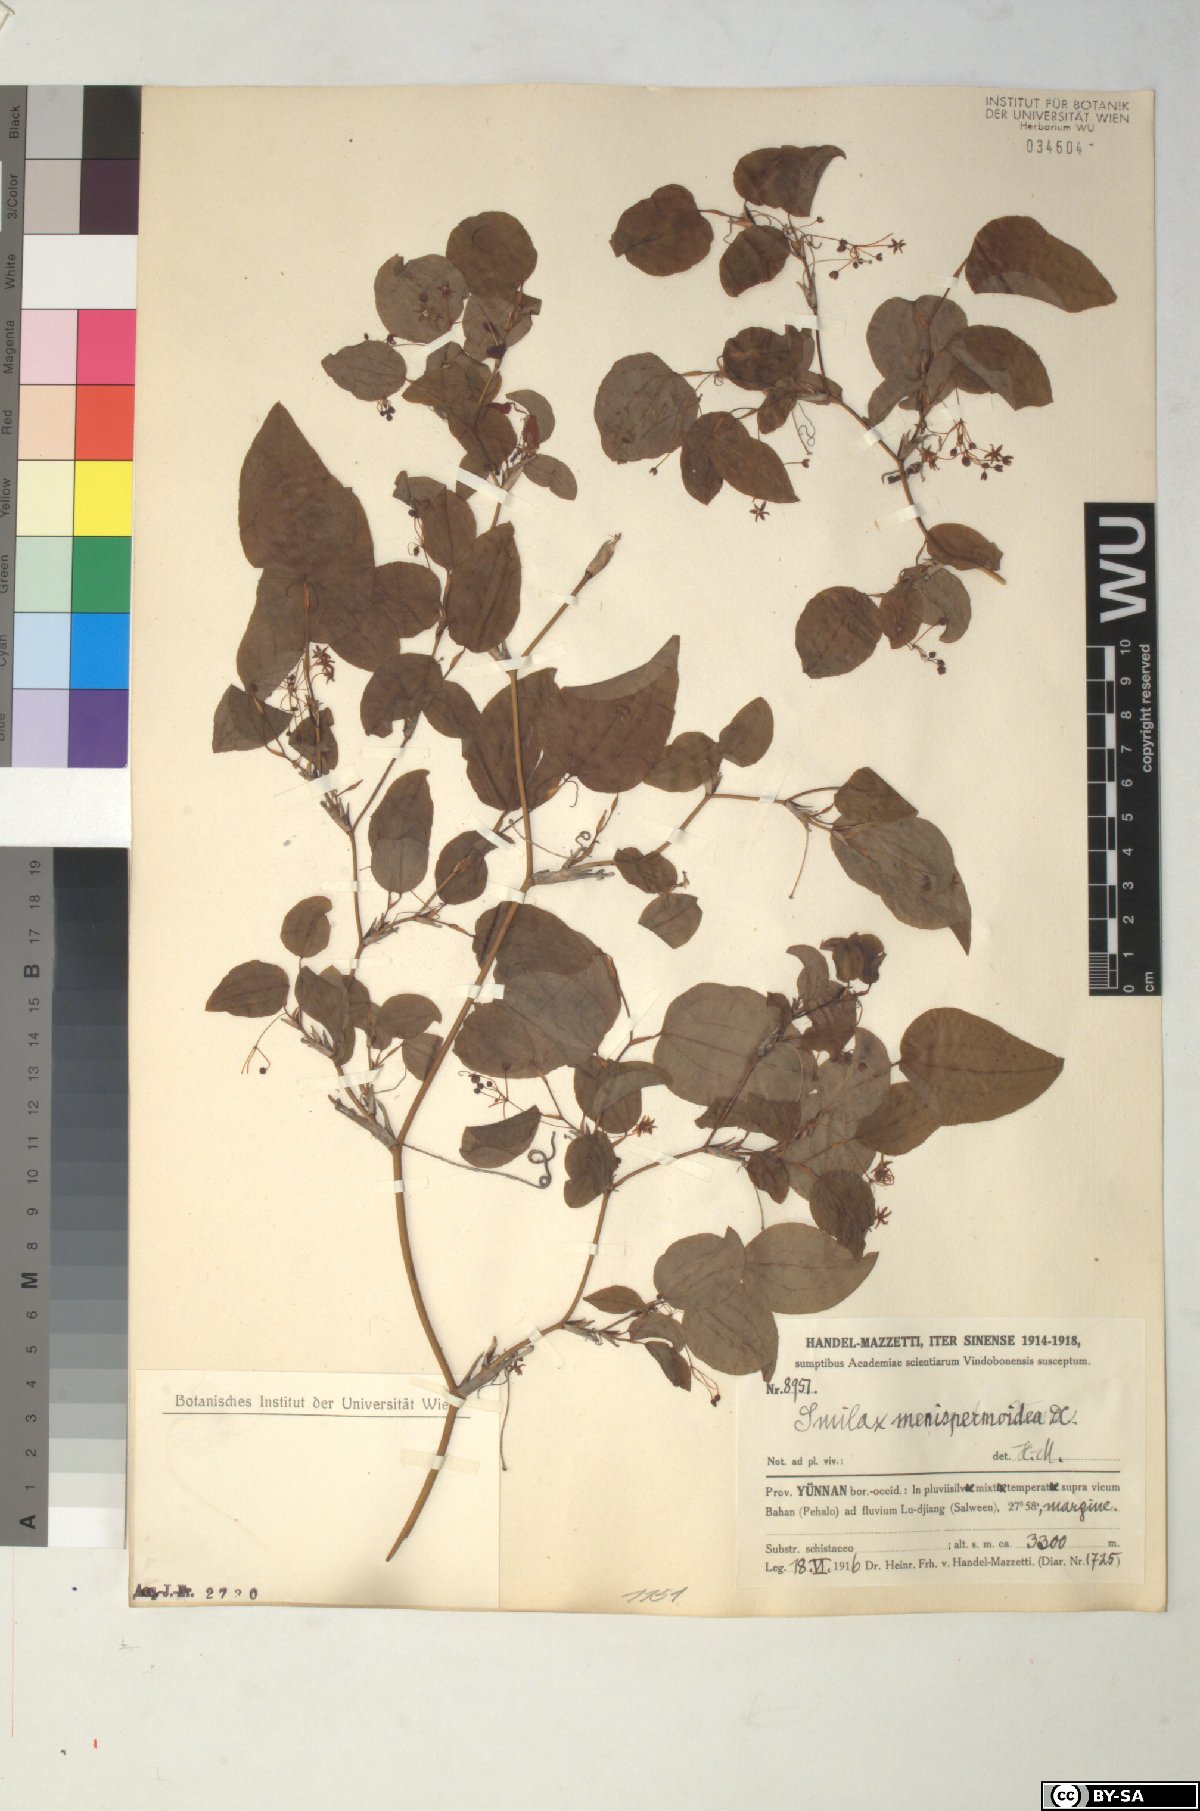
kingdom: Plantae
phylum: Tracheophyta
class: Liliopsida
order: Liliales
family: Smilacaceae
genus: Smilax
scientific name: Smilax menispermoidea
